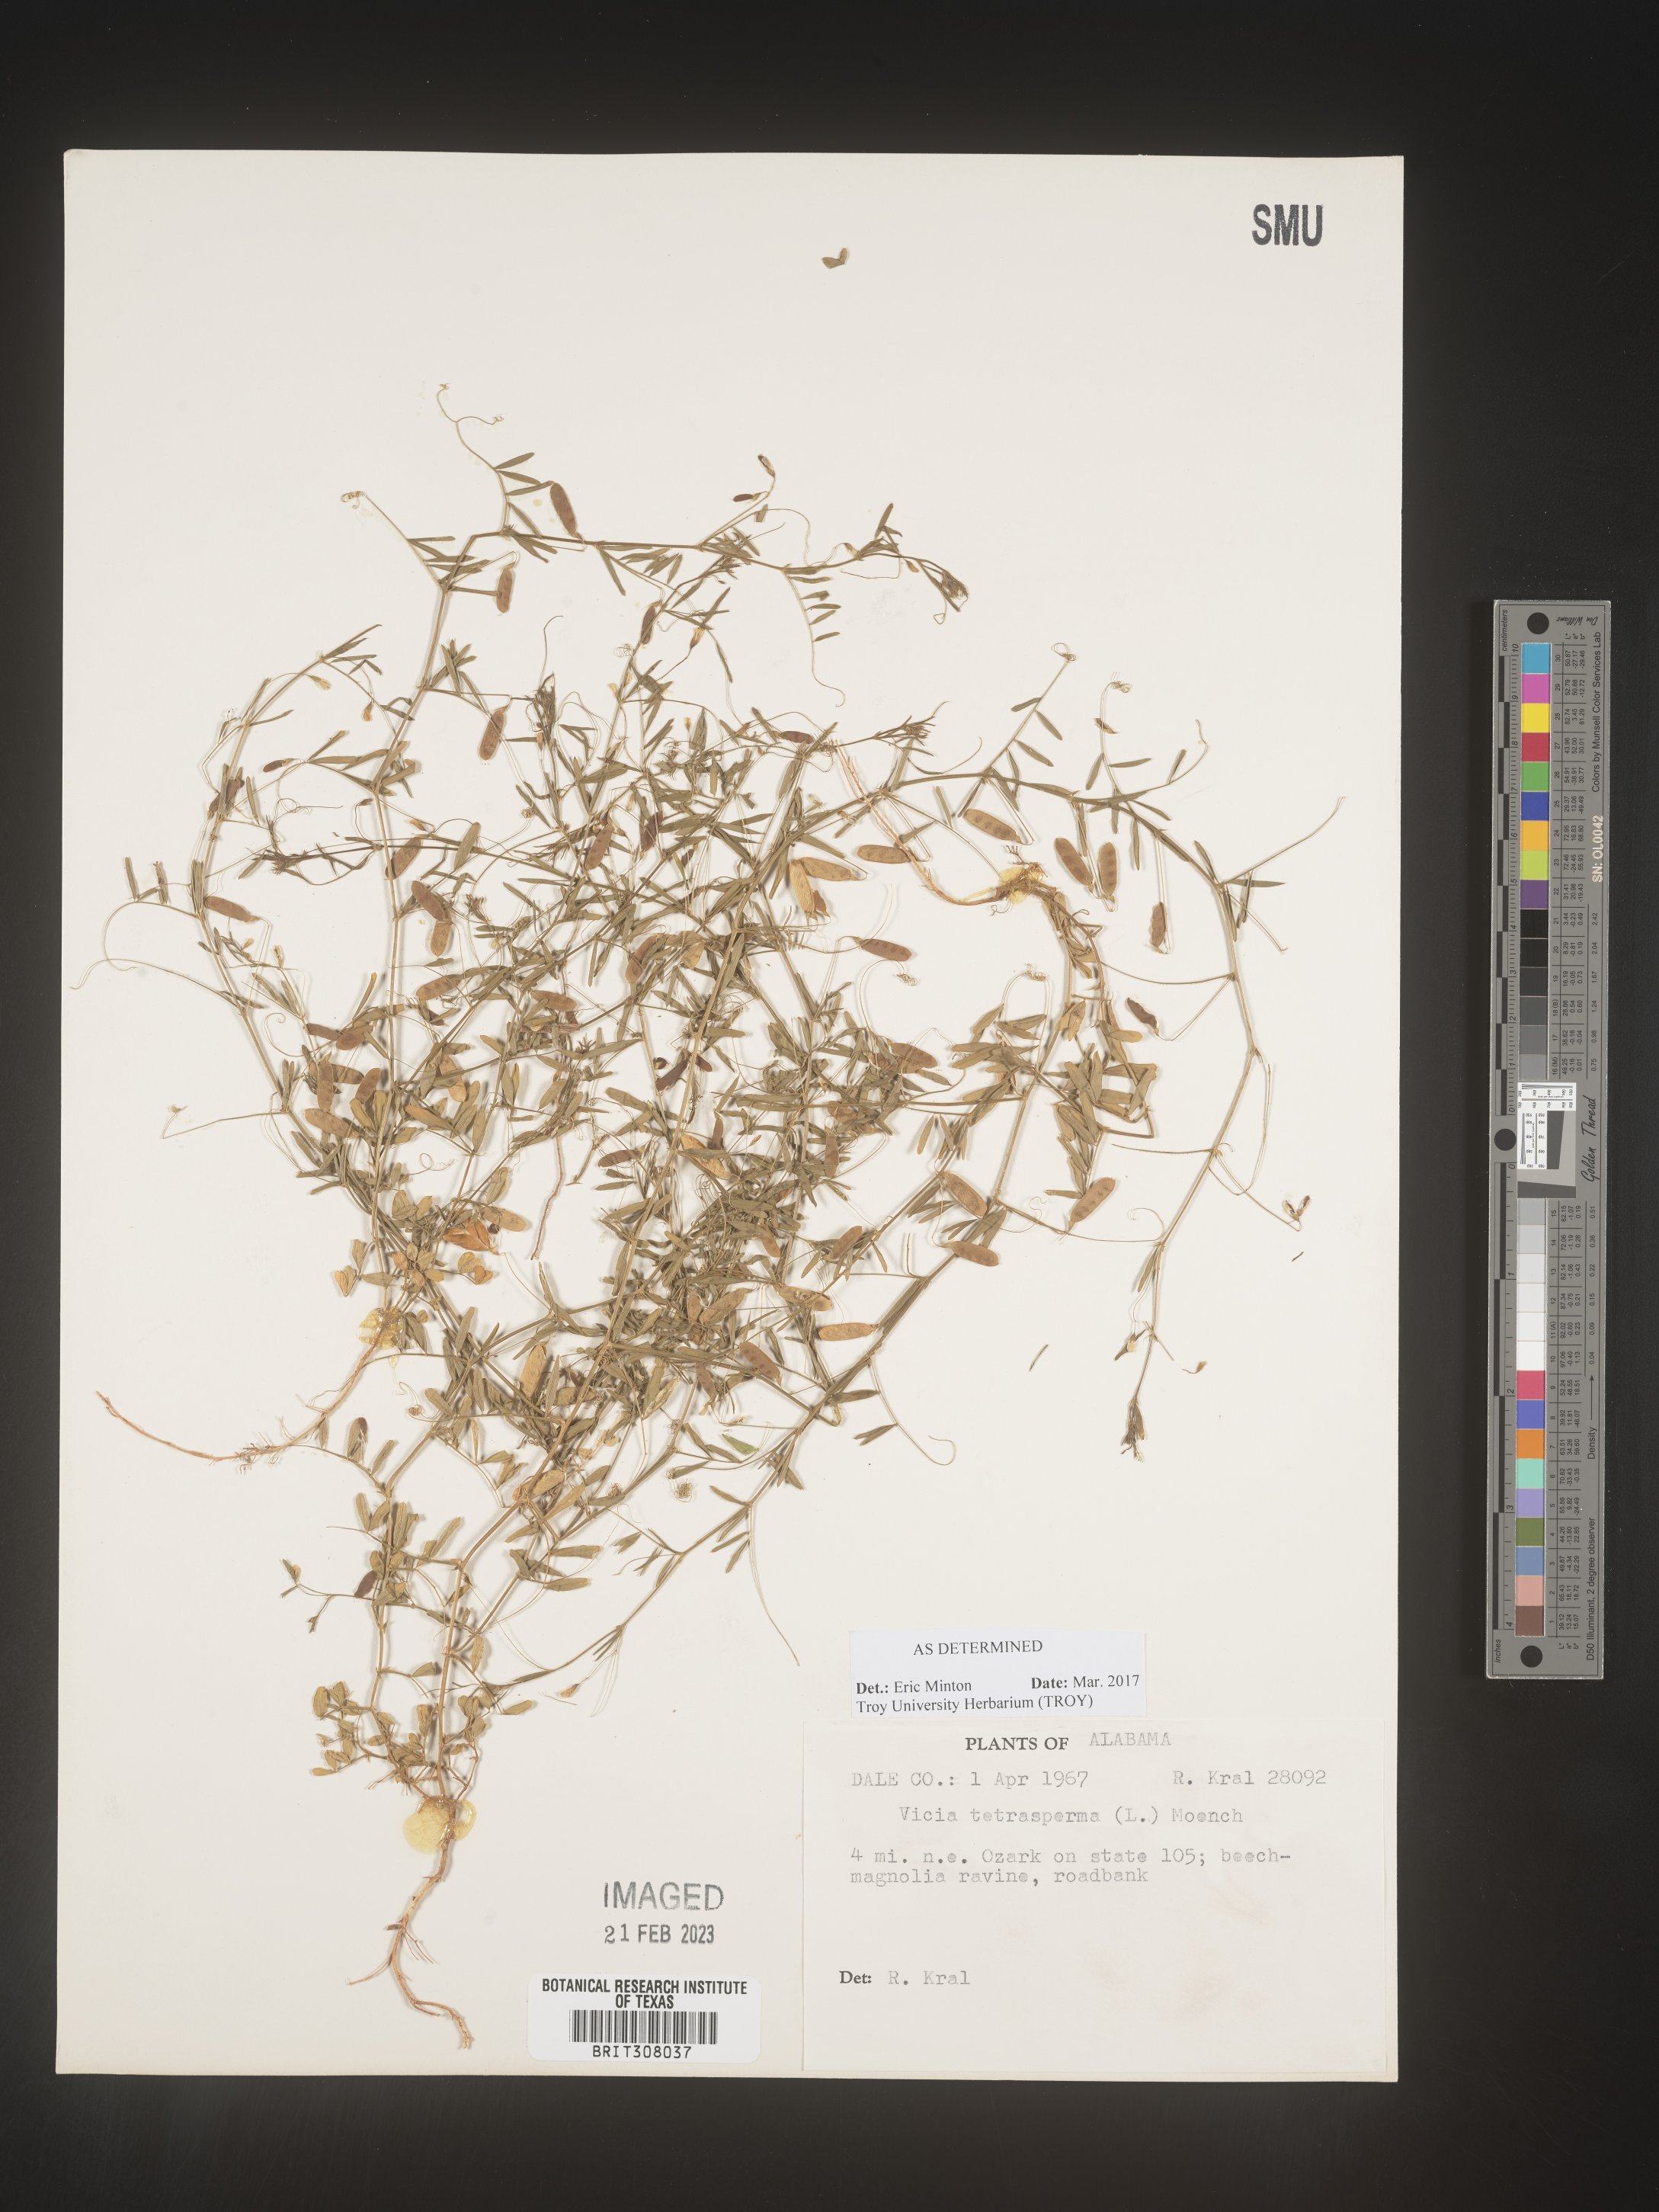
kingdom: Plantae
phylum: Tracheophyta
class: Magnoliopsida
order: Fabales
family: Fabaceae
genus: Vicia
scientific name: Vicia tetrasperma
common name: Smooth tare
